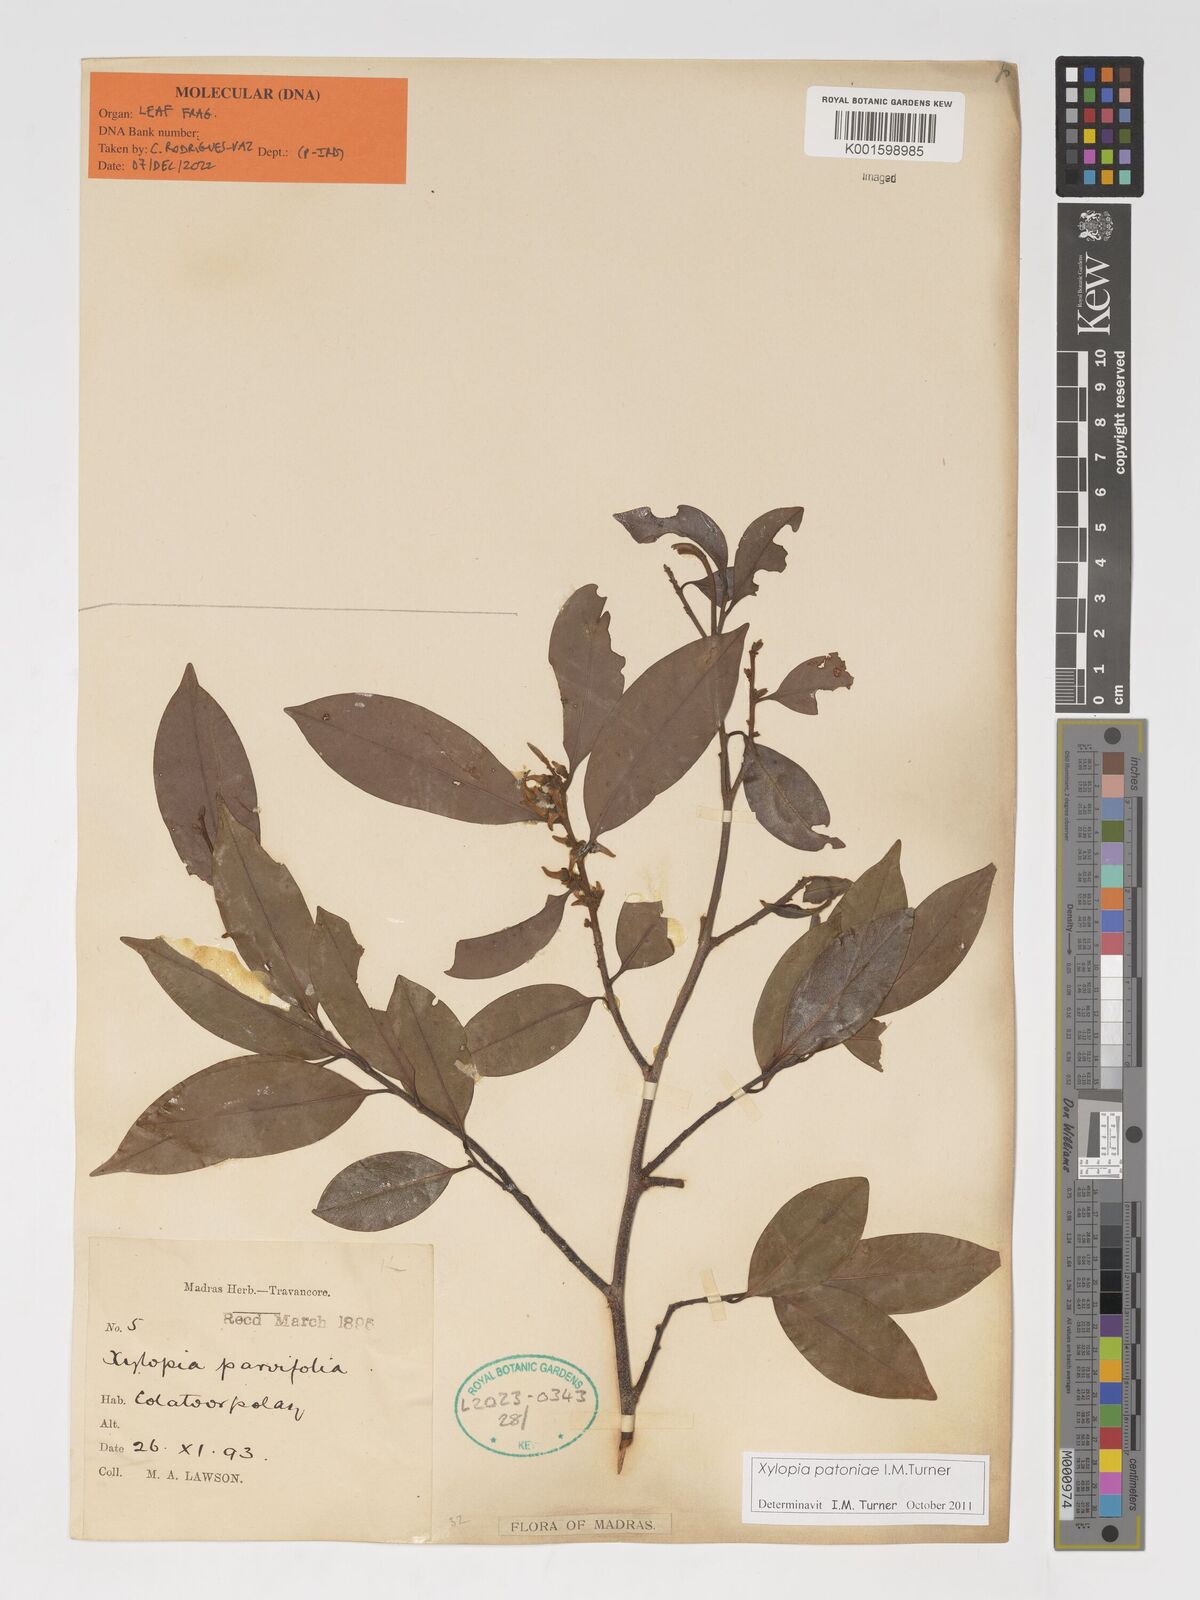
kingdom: Plantae
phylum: Tracheophyta
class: Magnoliopsida
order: Magnoliales
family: Annonaceae
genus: Xylopia
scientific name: Xylopia patoniae
